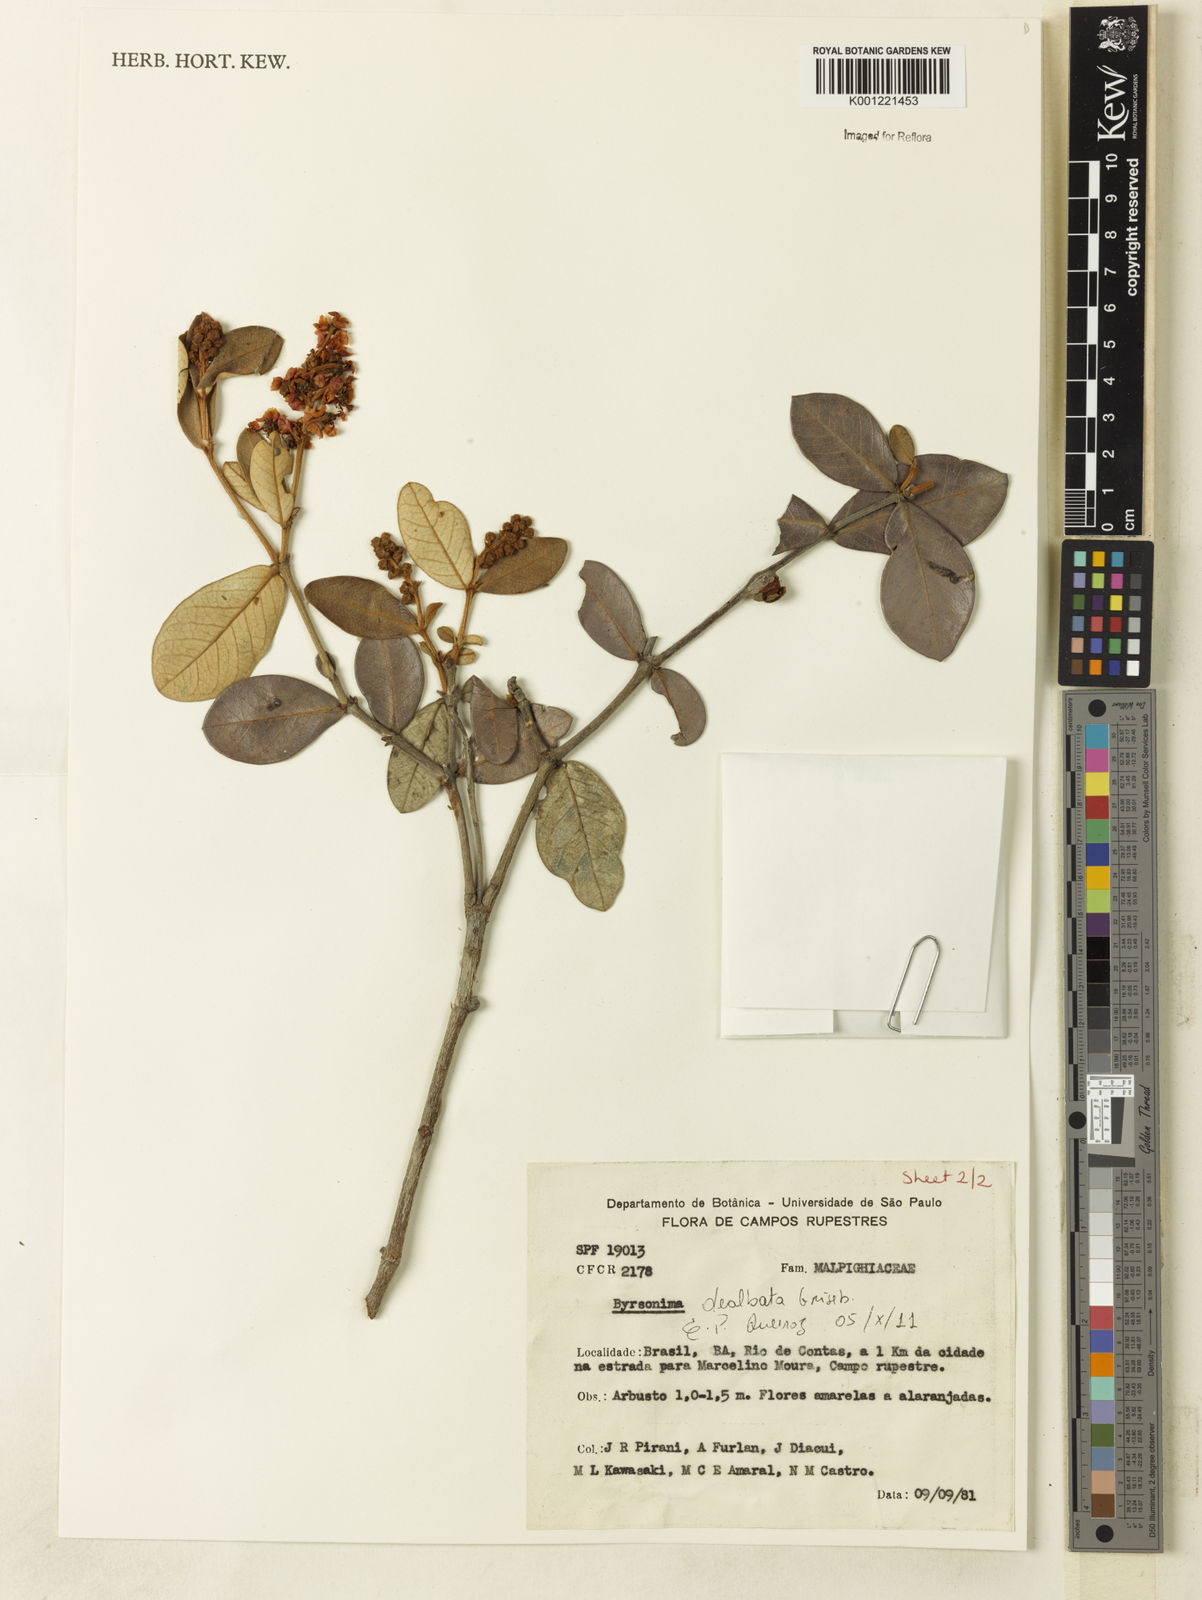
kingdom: Plantae
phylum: Tracheophyta
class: Magnoliopsida
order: Malpighiales
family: Malpighiaceae
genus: Byrsonima
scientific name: Byrsonima dealbata
